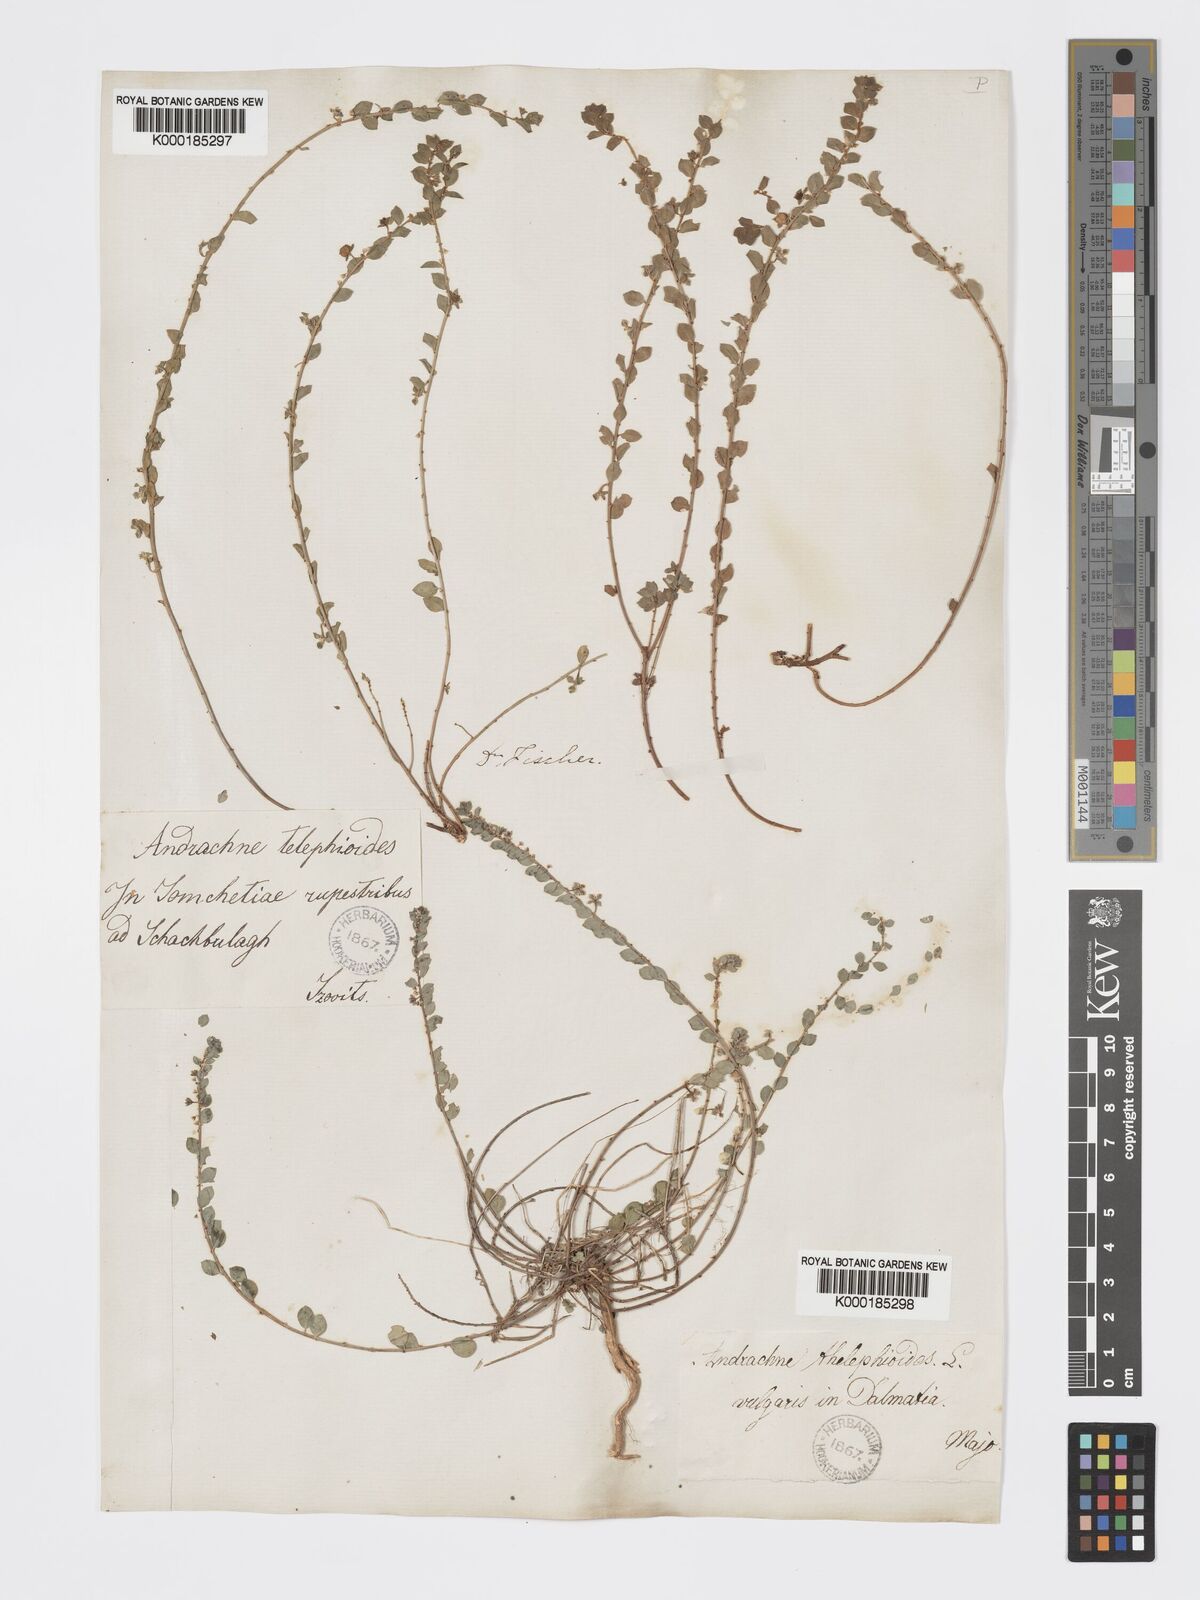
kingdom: Plantae
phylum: Tracheophyta
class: Magnoliopsida
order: Malpighiales
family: Phyllanthaceae
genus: Andrachne
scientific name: Andrachne telephioides
